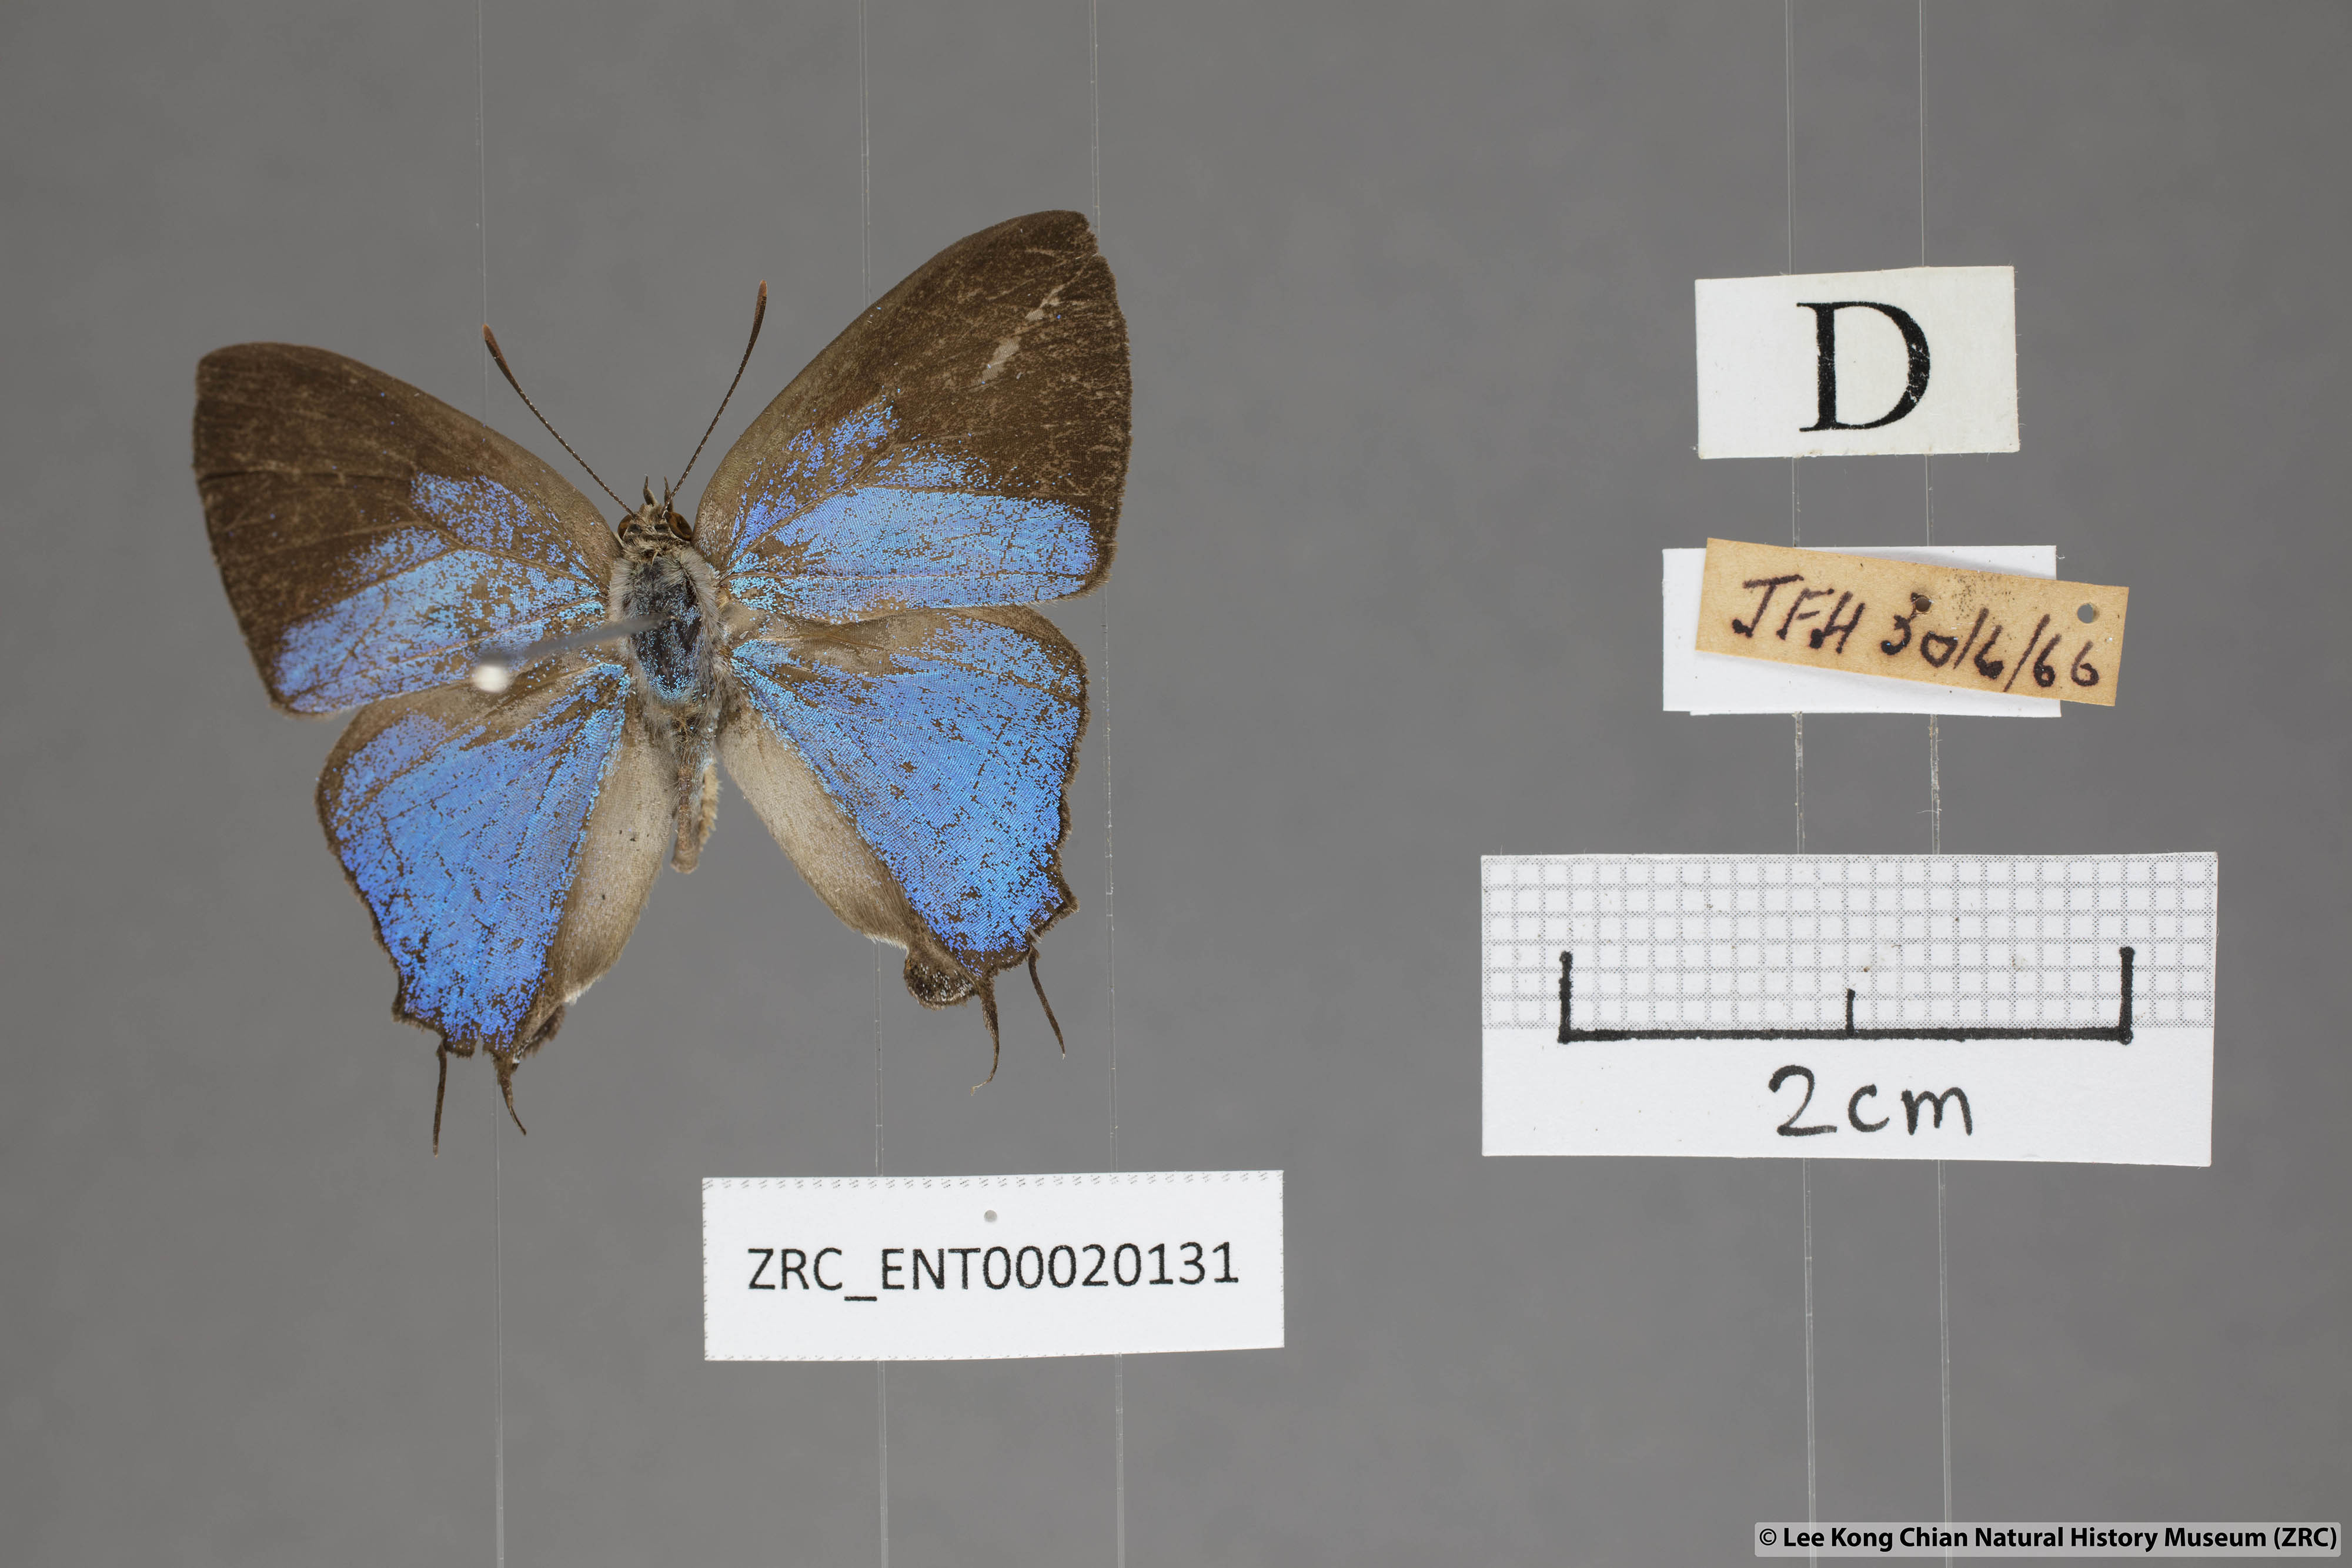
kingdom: Animalia
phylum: Arthropoda
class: Insecta
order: Lepidoptera
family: Lycaenidae
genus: Creon
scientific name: Creon cleobis
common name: Broad-tail royal
